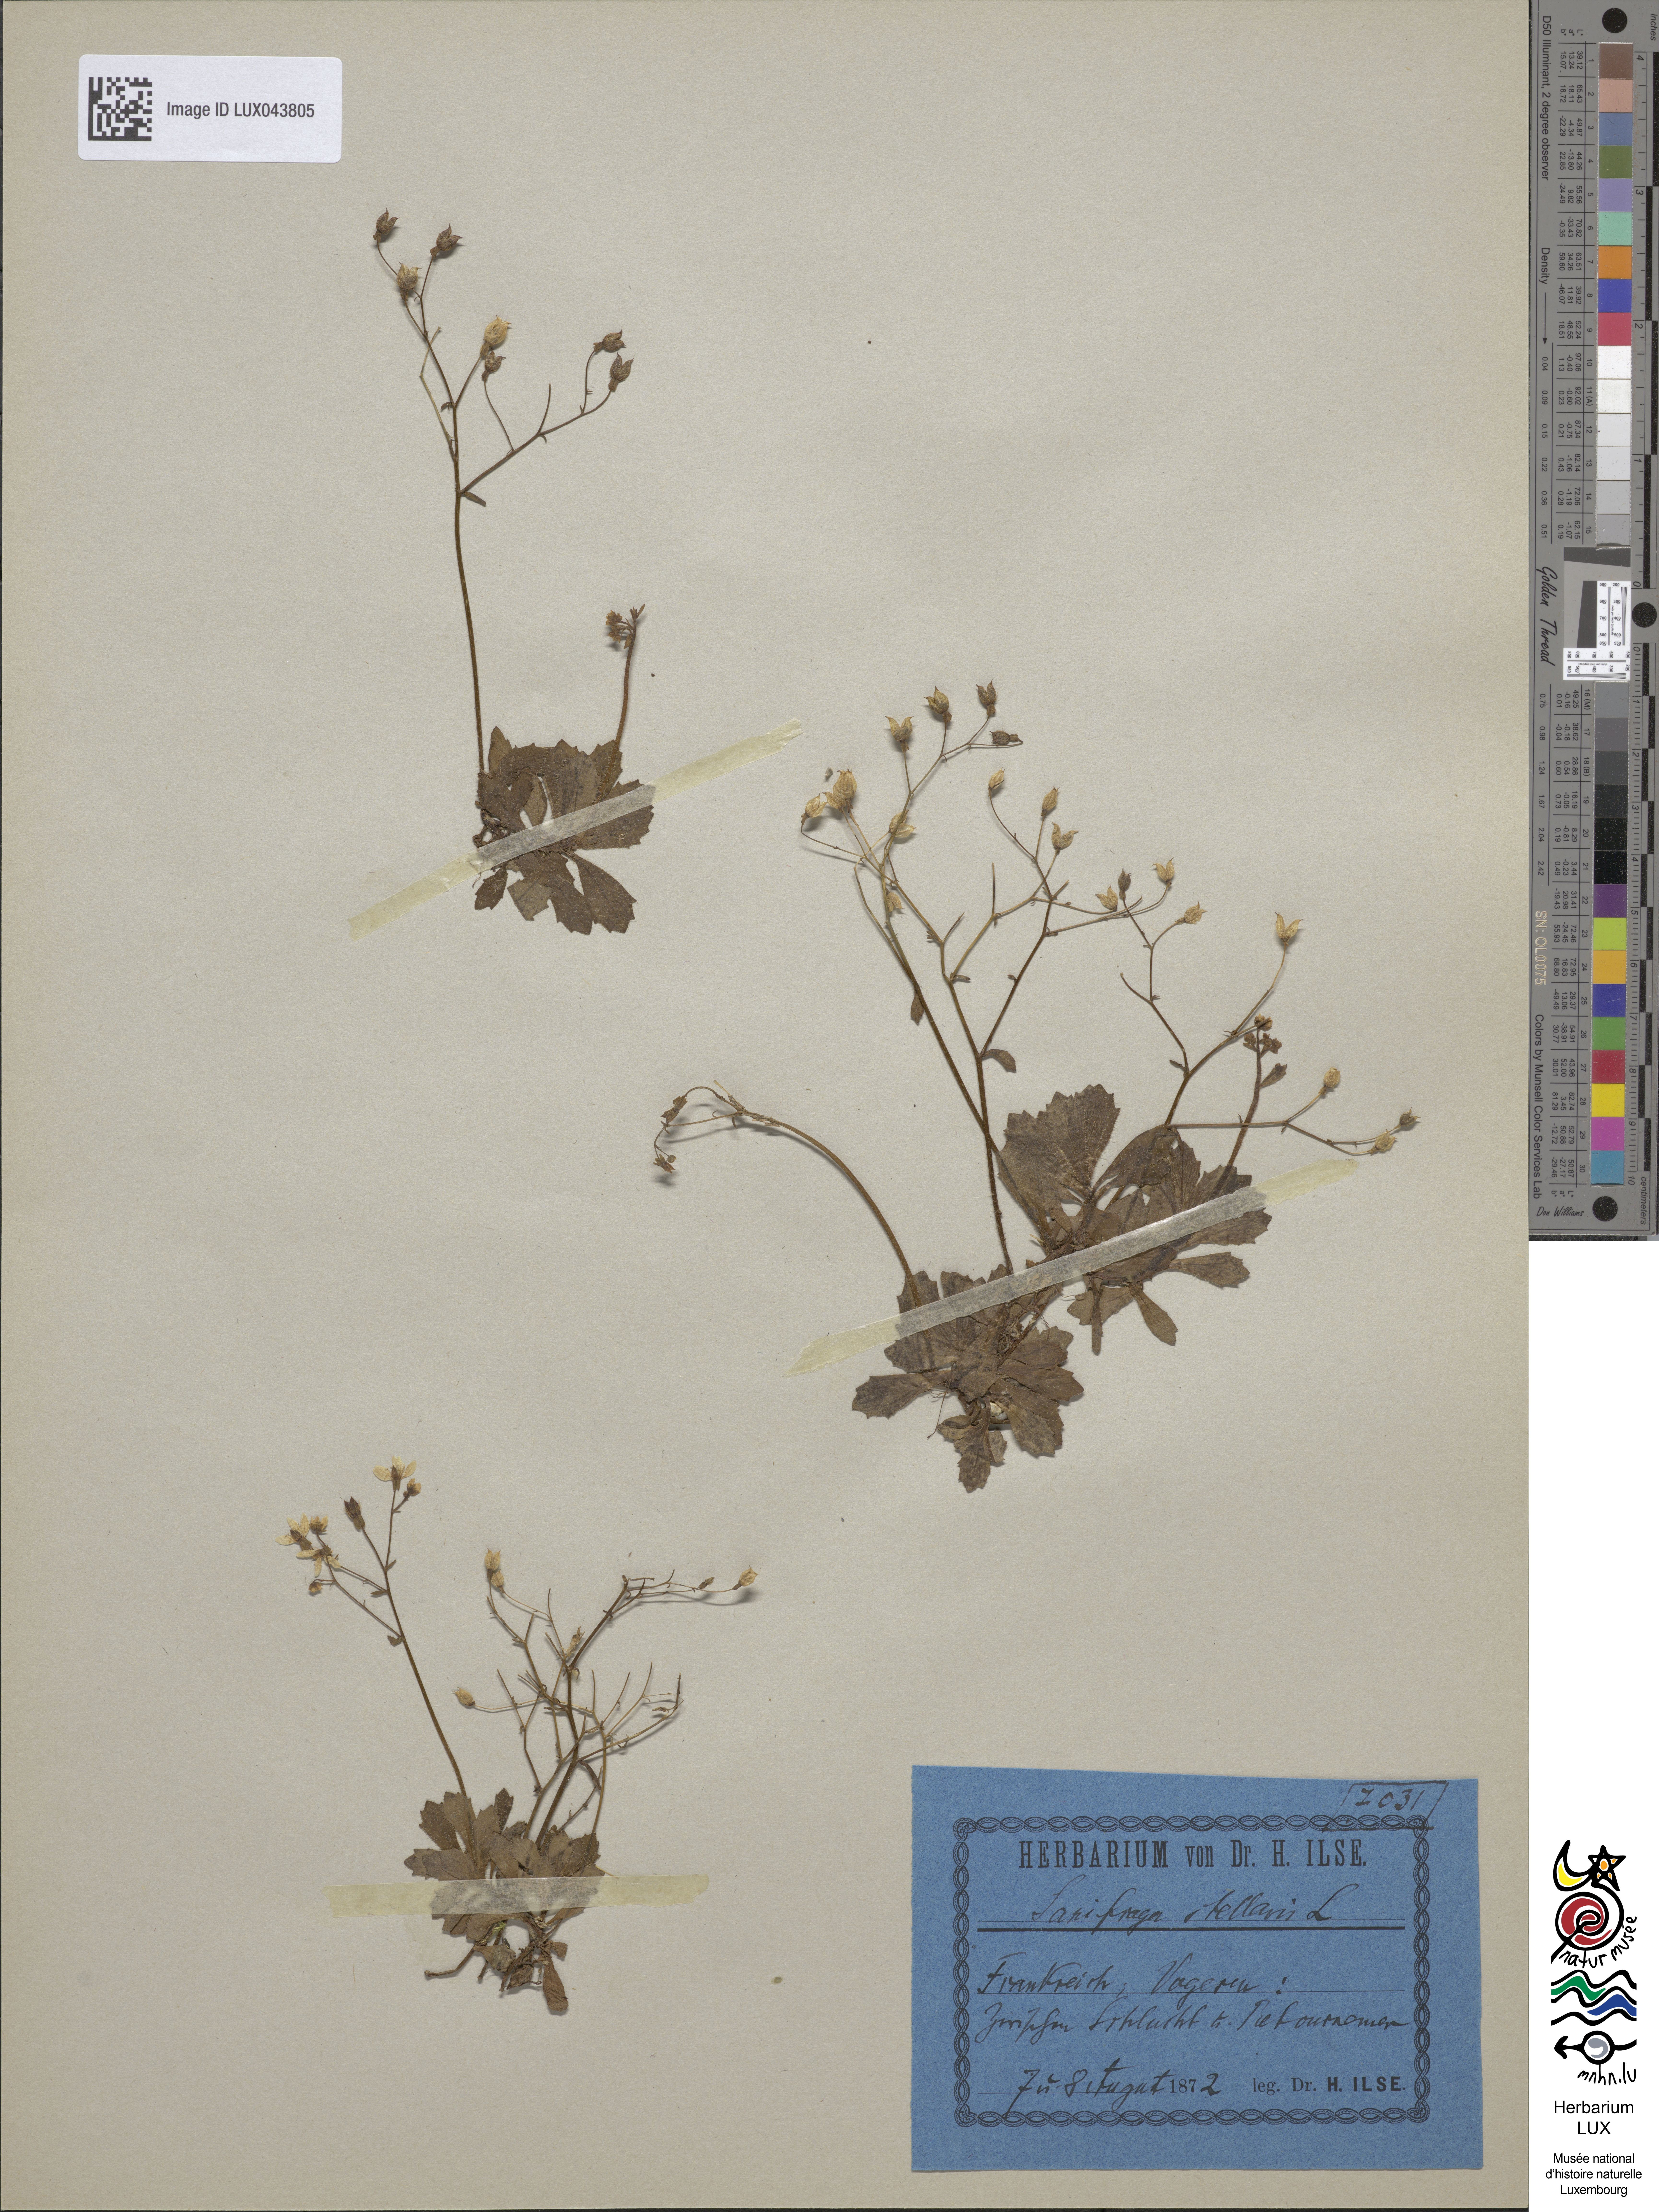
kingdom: Plantae
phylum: Tracheophyta
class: Magnoliopsida
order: Saxifragales
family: Saxifragaceae
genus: Micranthes
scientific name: Micranthes stellaris
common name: Starry saxifrage
